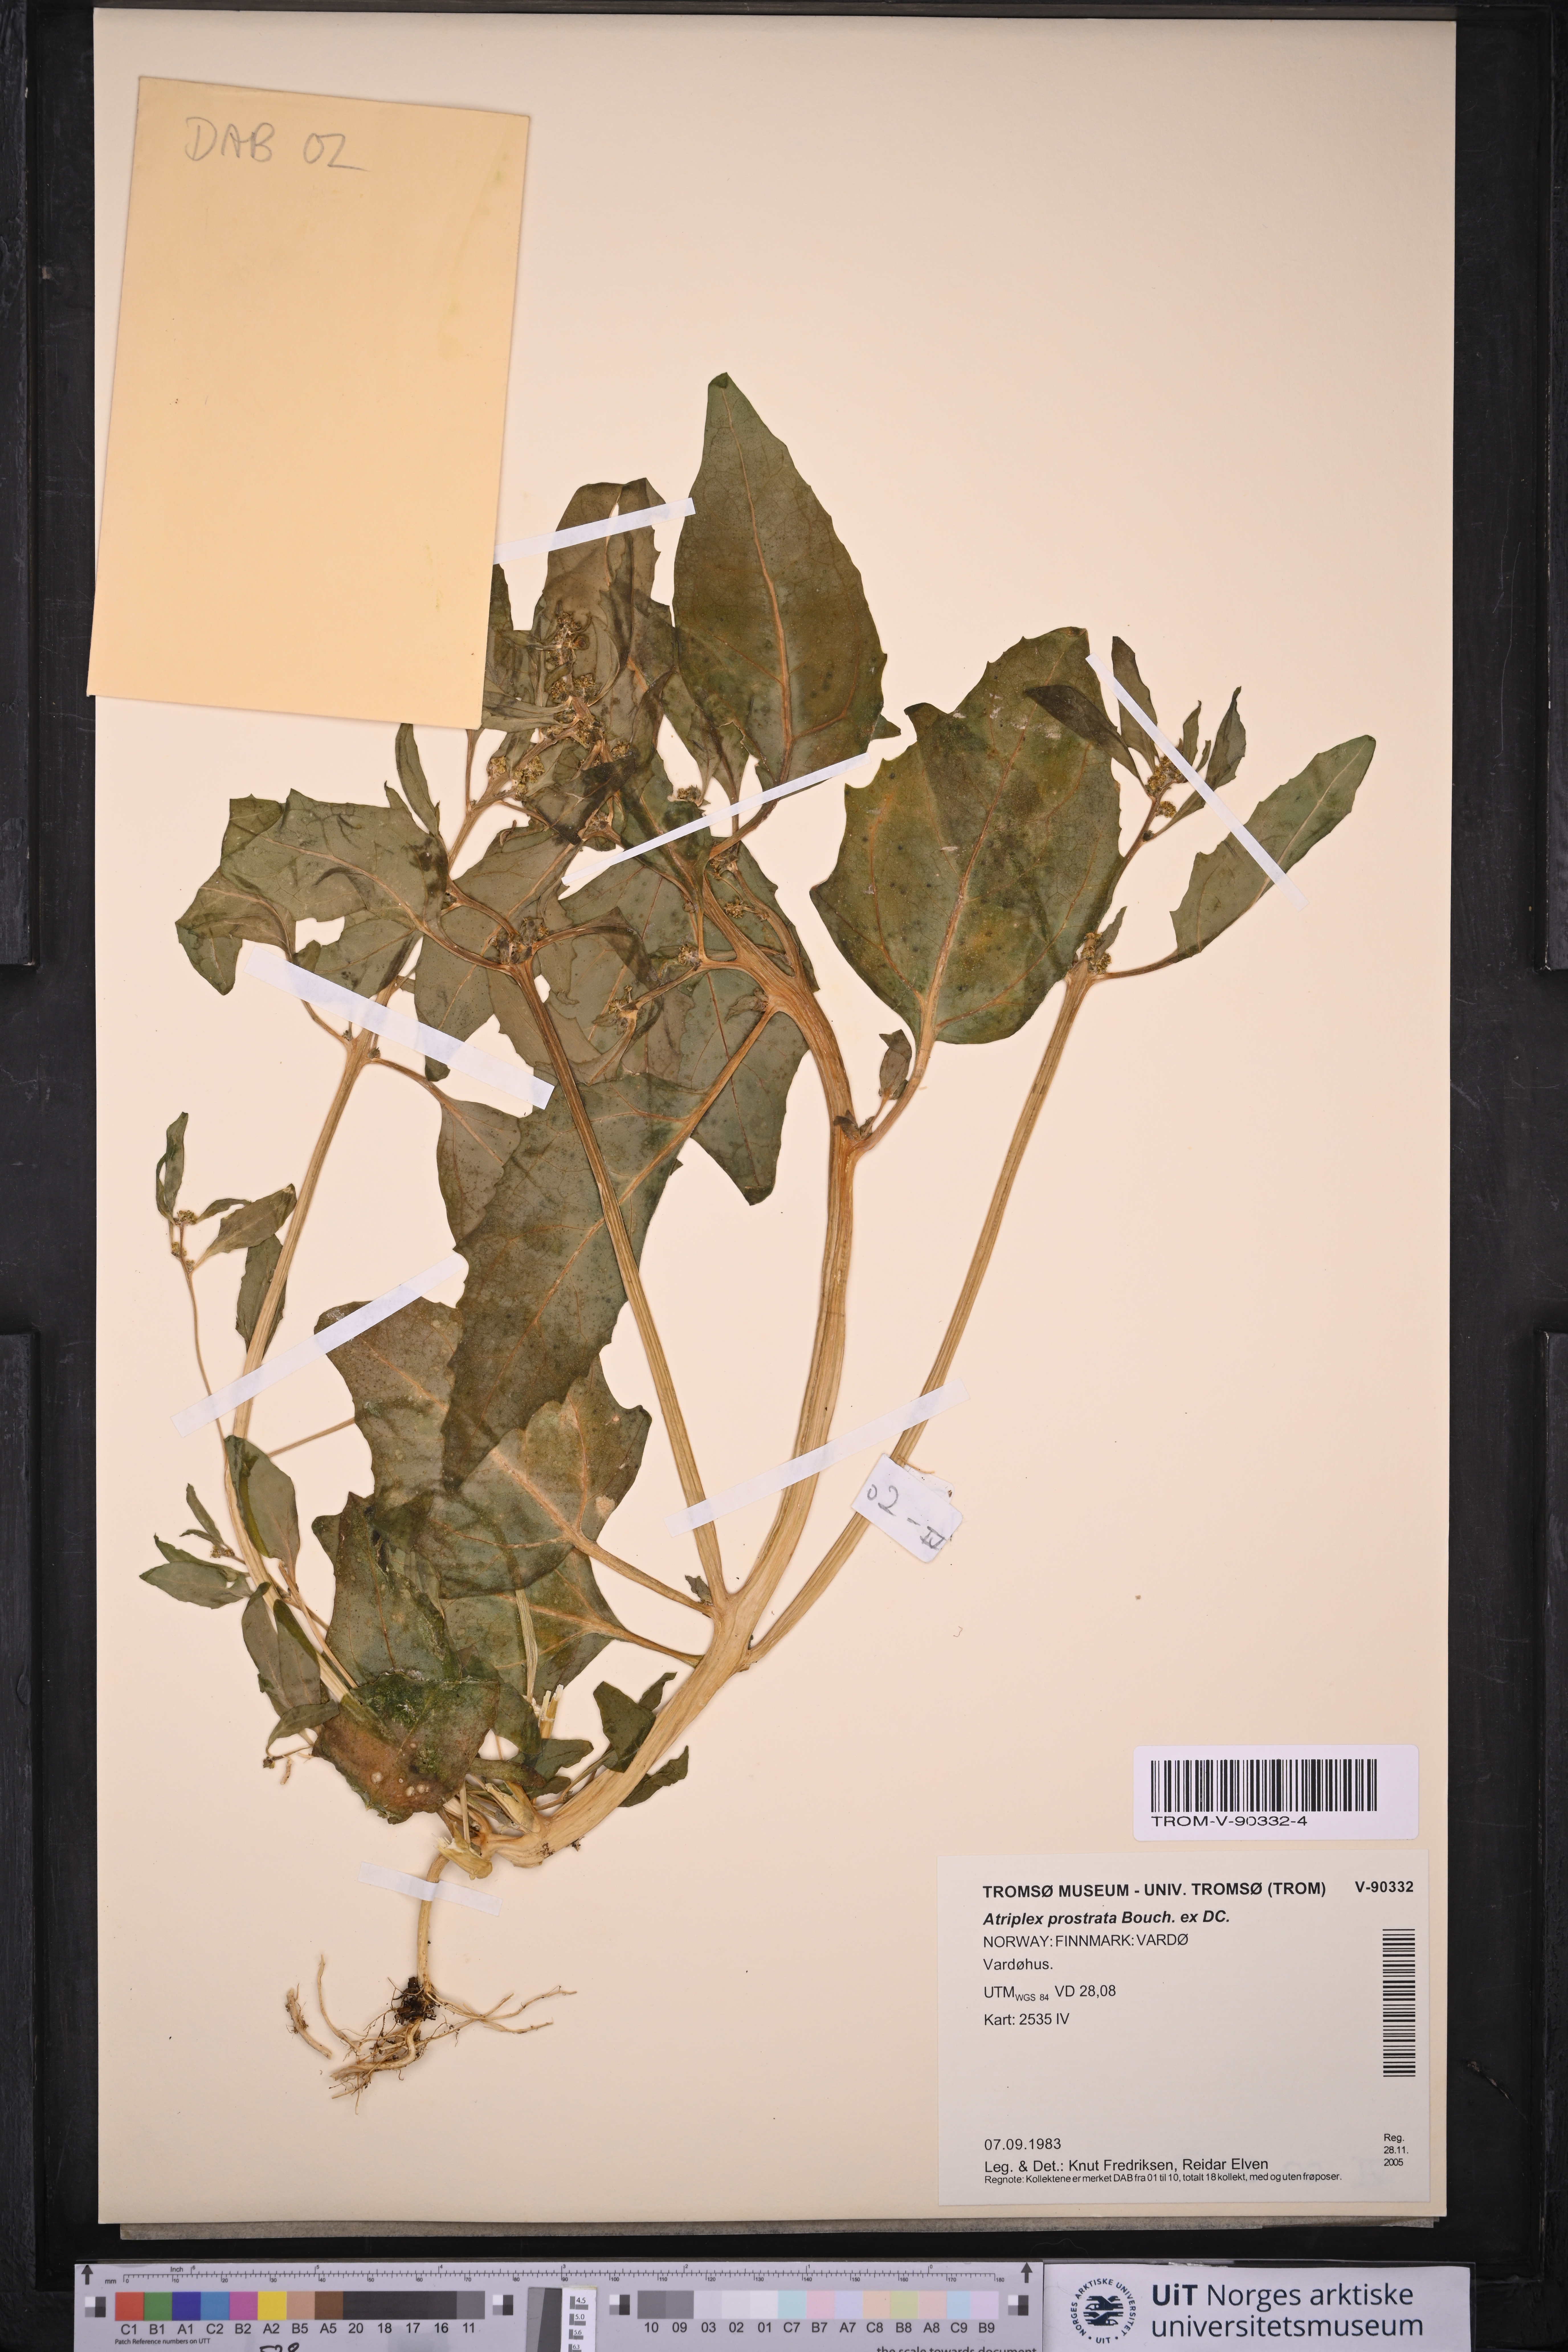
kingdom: Plantae
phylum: Tracheophyta
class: Magnoliopsida
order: Caryophyllales
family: Amaranthaceae
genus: Atriplex
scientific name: Atriplex prostrata
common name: Spear-leaved orache
